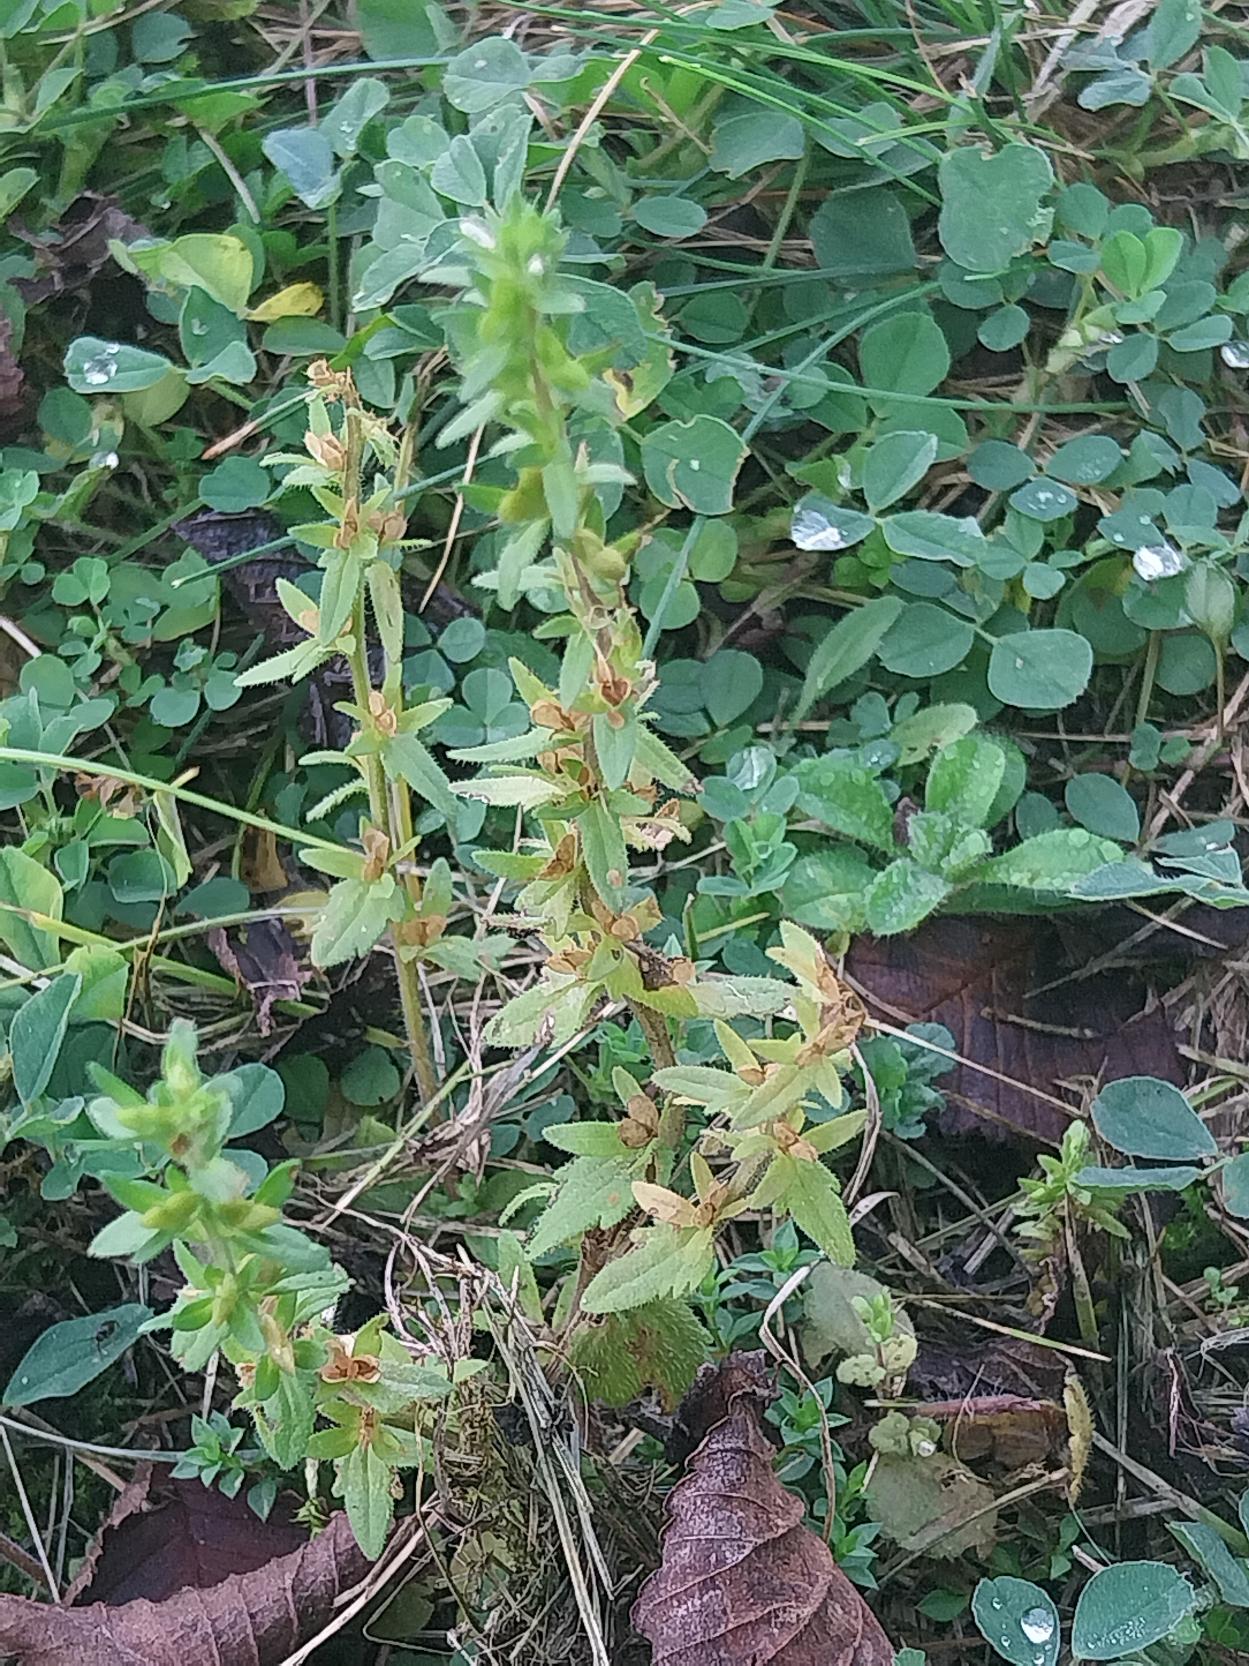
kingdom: Plantae
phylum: Tracheophyta
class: Magnoliopsida
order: Lamiales
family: Plantaginaceae
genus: Veronica
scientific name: Veronica arvensis
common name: Mark-ærenpris
